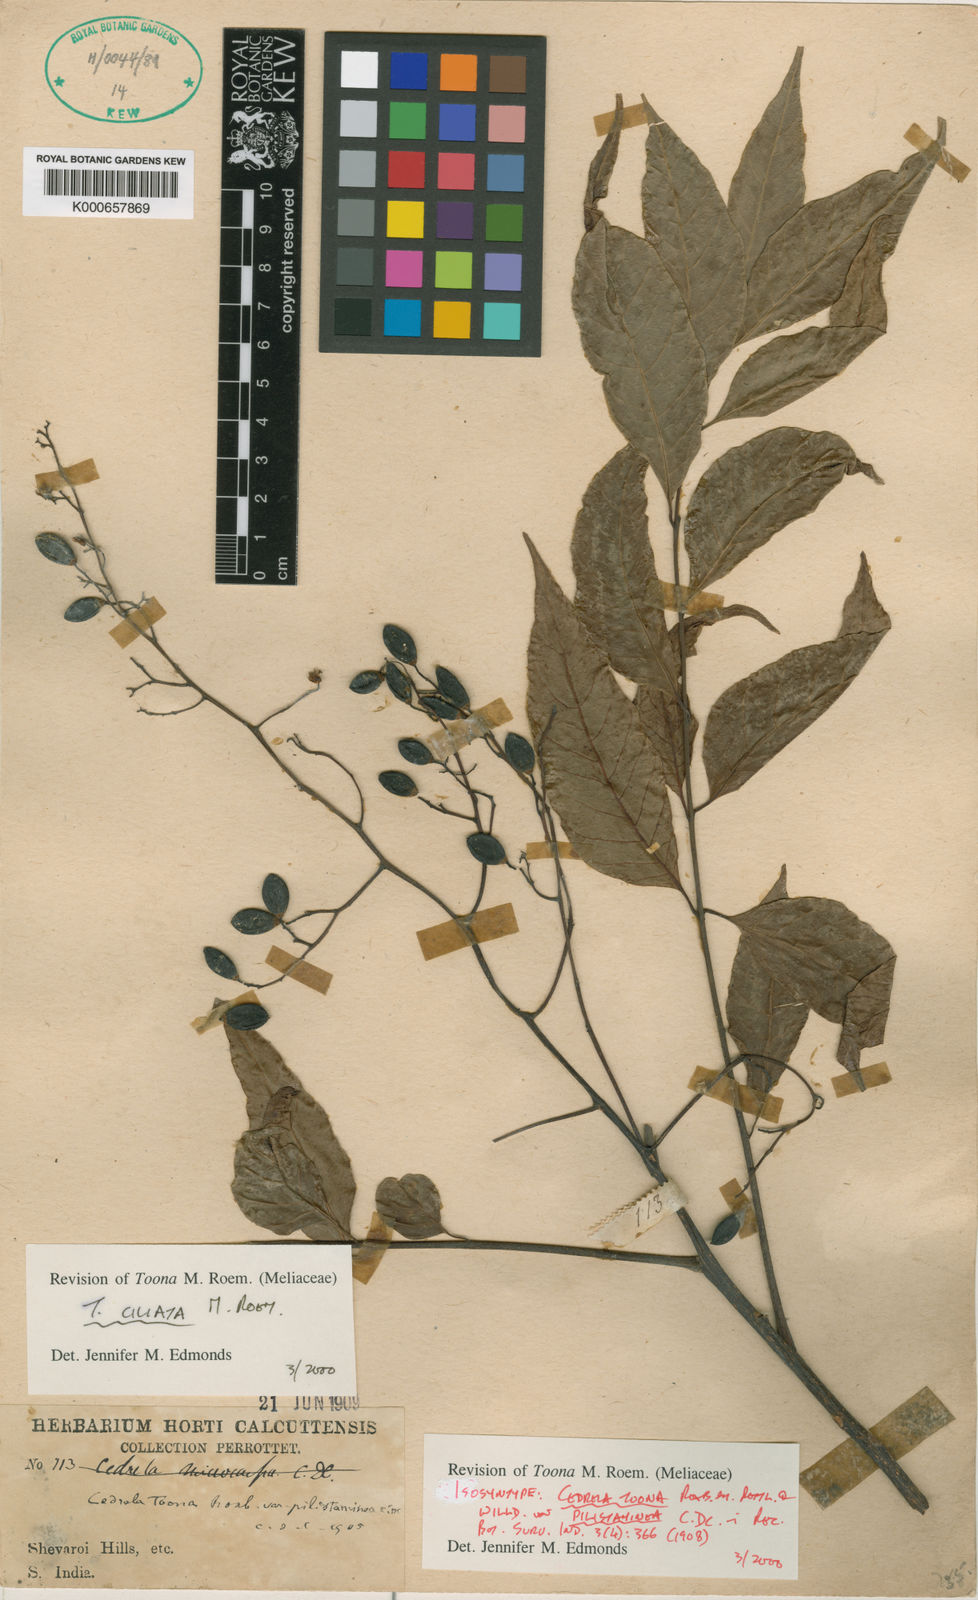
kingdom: Plantae
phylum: Tracheophyta
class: Magnoliopsida
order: Sapindales
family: Meliaceae
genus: Toona
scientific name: Toona ciliata
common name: Australian redcedar
